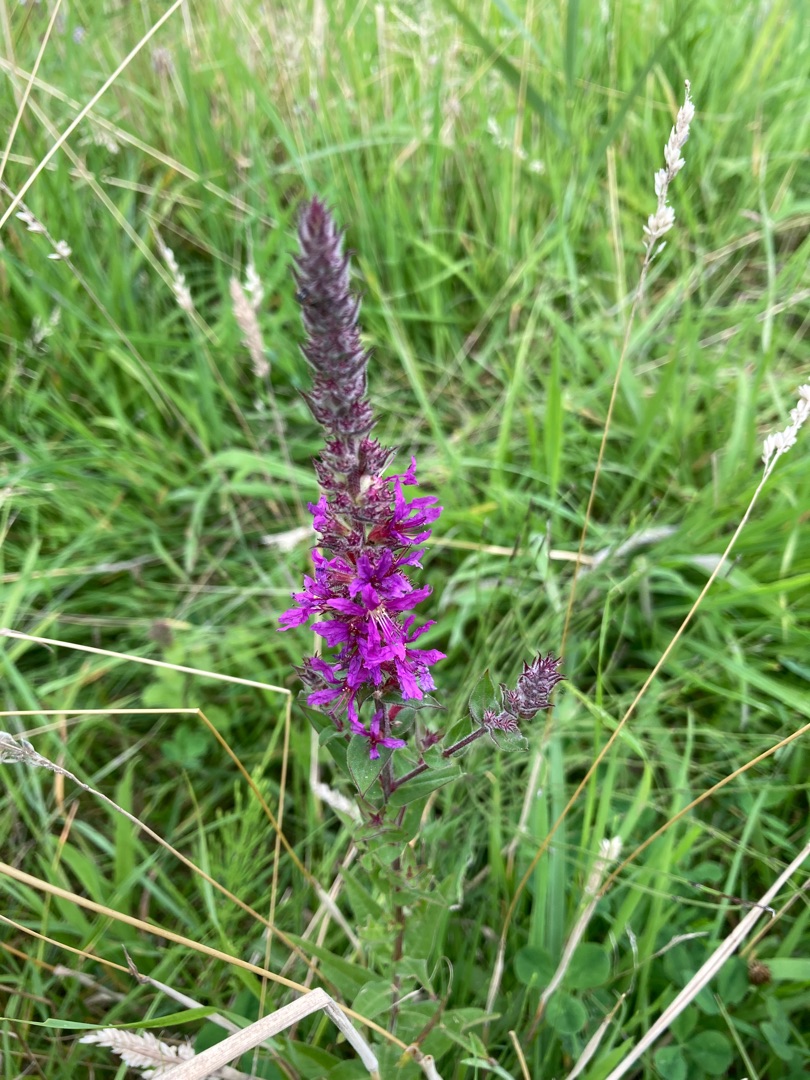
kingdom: Plantae
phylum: Tracheophyta
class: Magnoliopsida
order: Myrtales
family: Lythraceae
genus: Lythrum
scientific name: Lythrum salicaria
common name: Kattehale
